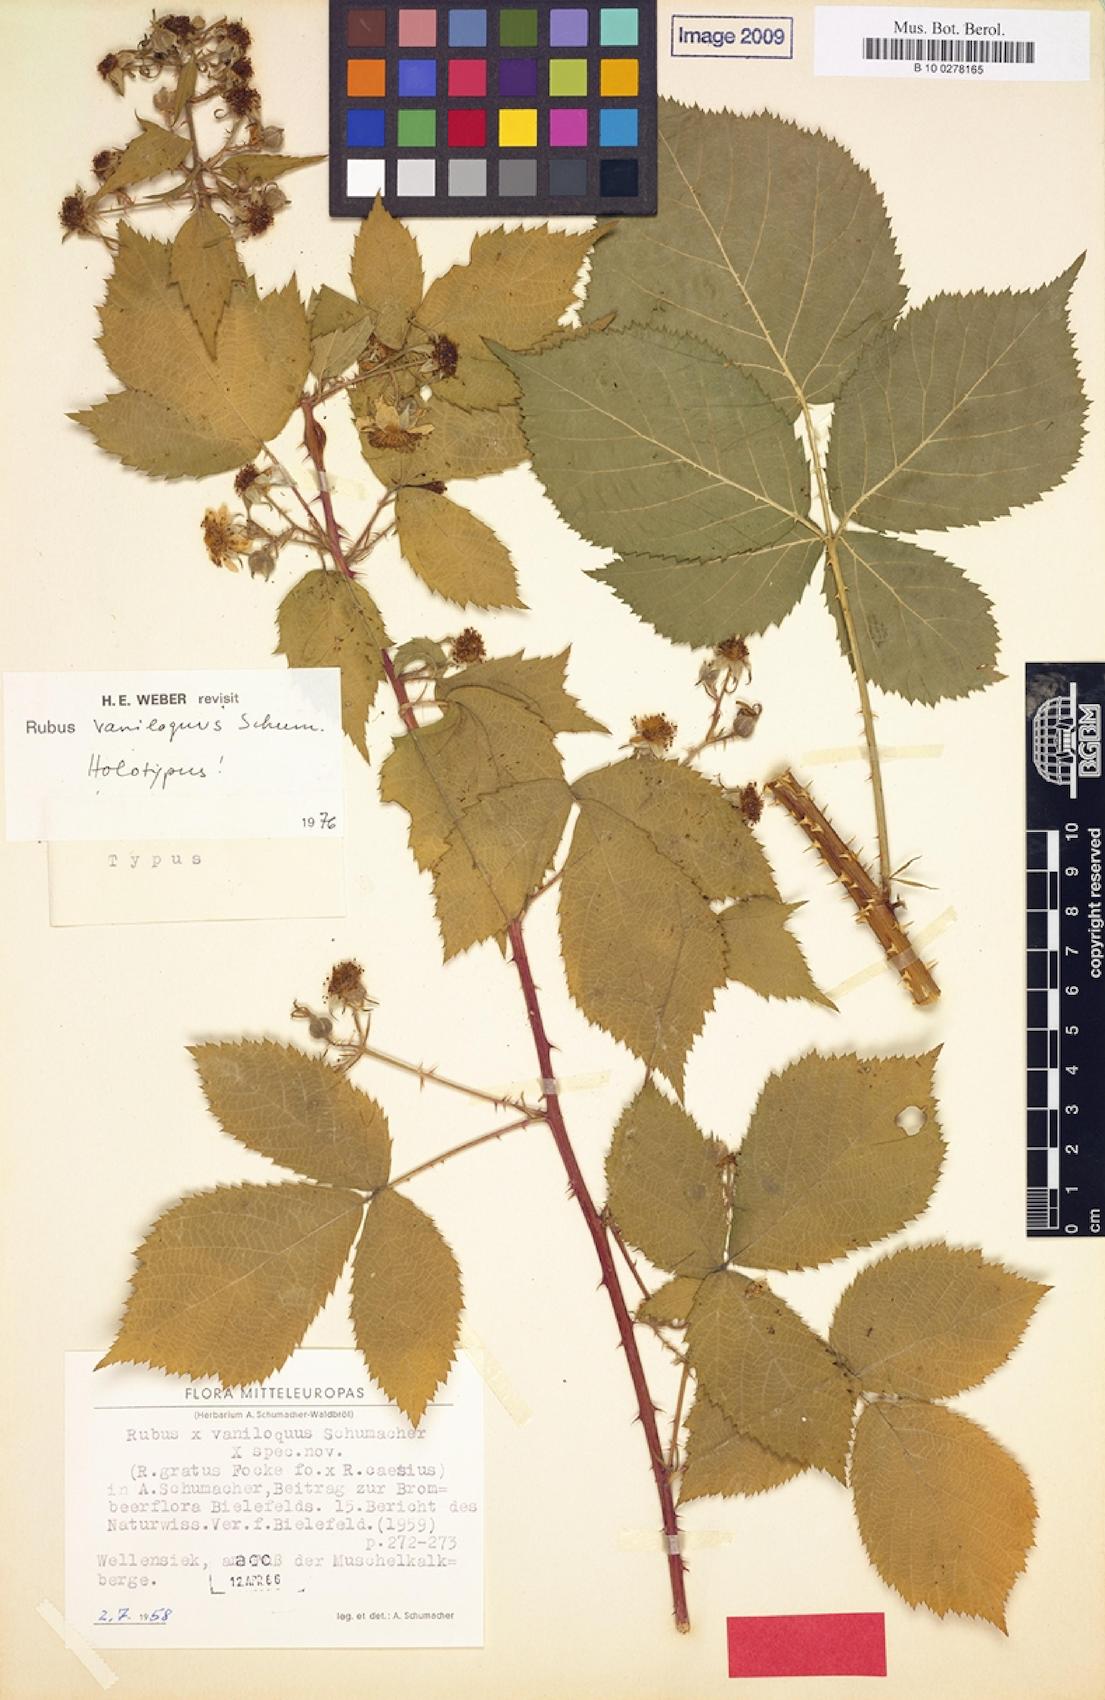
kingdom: Plantae
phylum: Tracheophyta
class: Magnoliopsida
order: Rosales
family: Rosaceae
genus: Rubus
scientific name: Rubus vaniloquus
